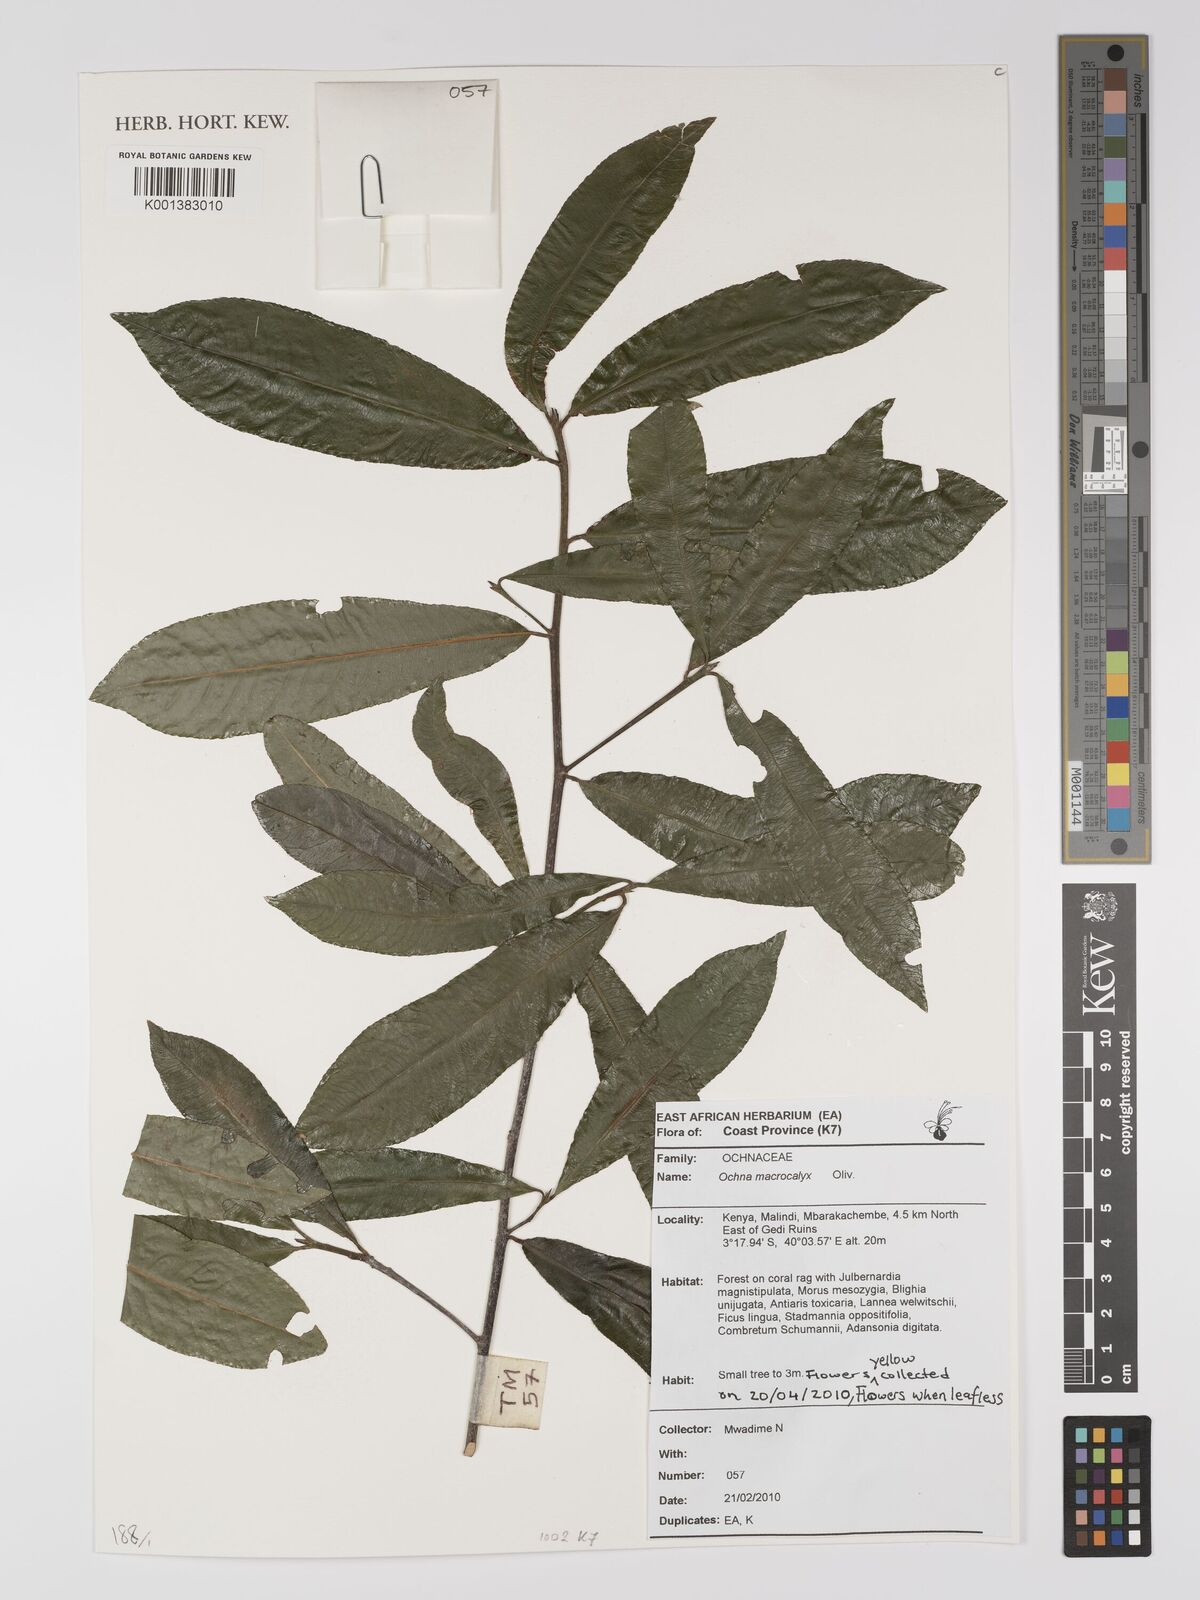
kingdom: Plantae
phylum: Tracheophyta
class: Magnoliopsida
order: Malpighiales
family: Ochnaceae
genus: Ochna
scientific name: Ochna macrocalyx
